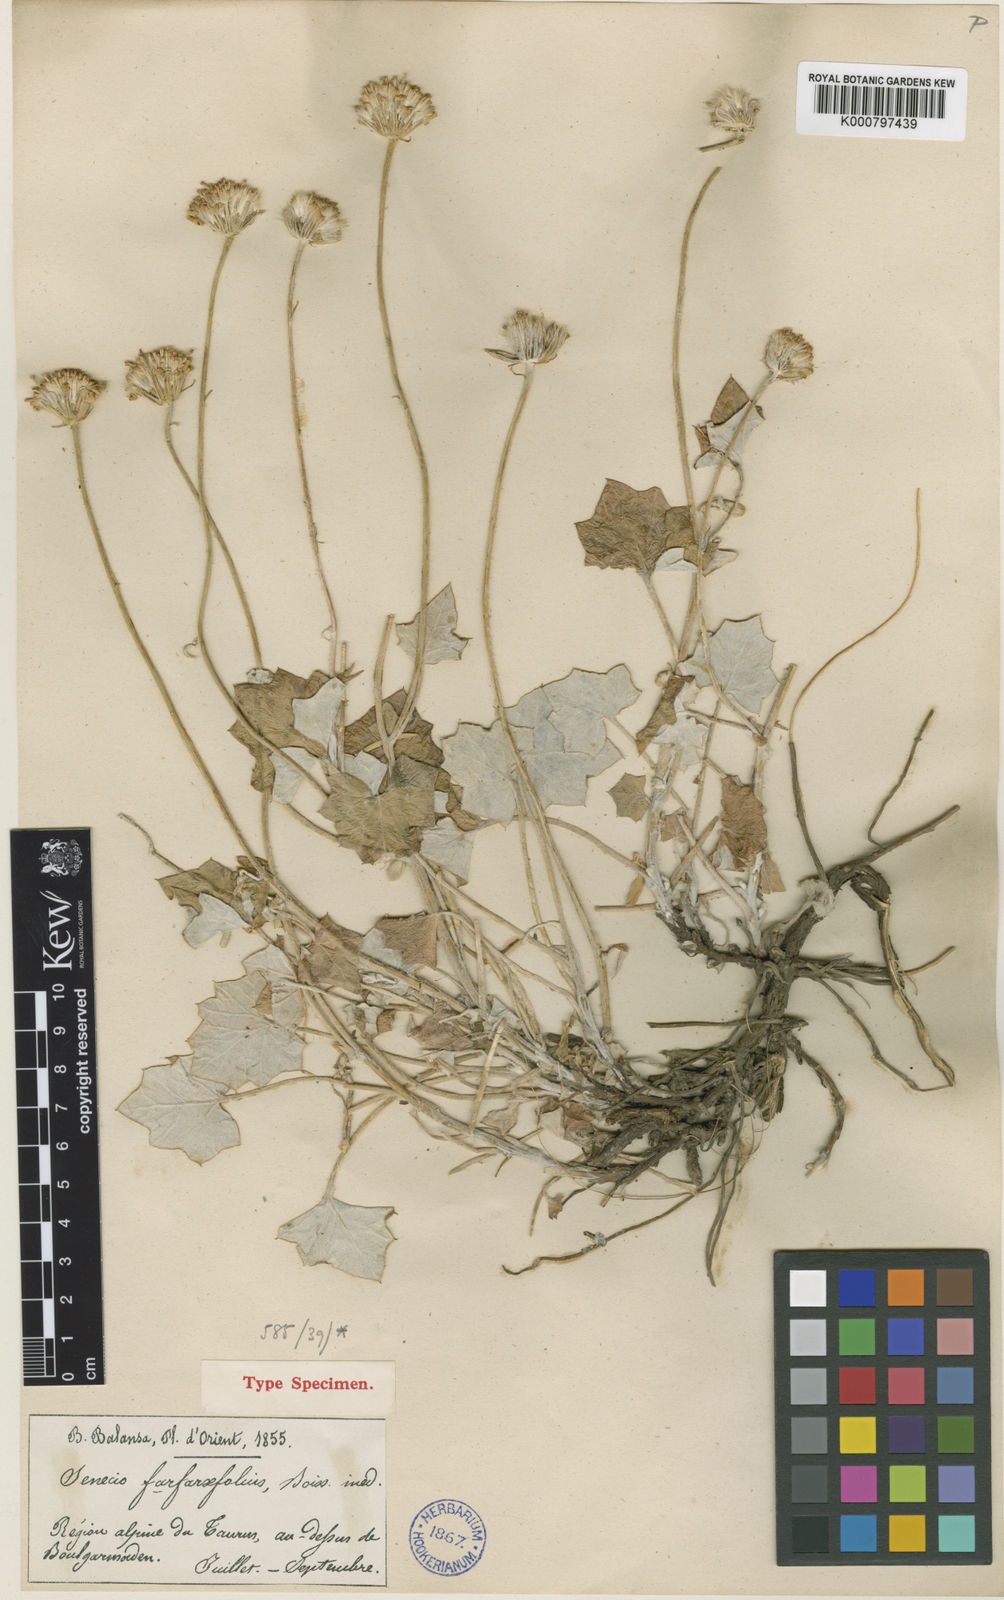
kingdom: Plantae
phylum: Tracheophyta
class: Magnoliopsida
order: Asterales
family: Asteraceae
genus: Turanecio
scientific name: Turanecio farfarifolius
